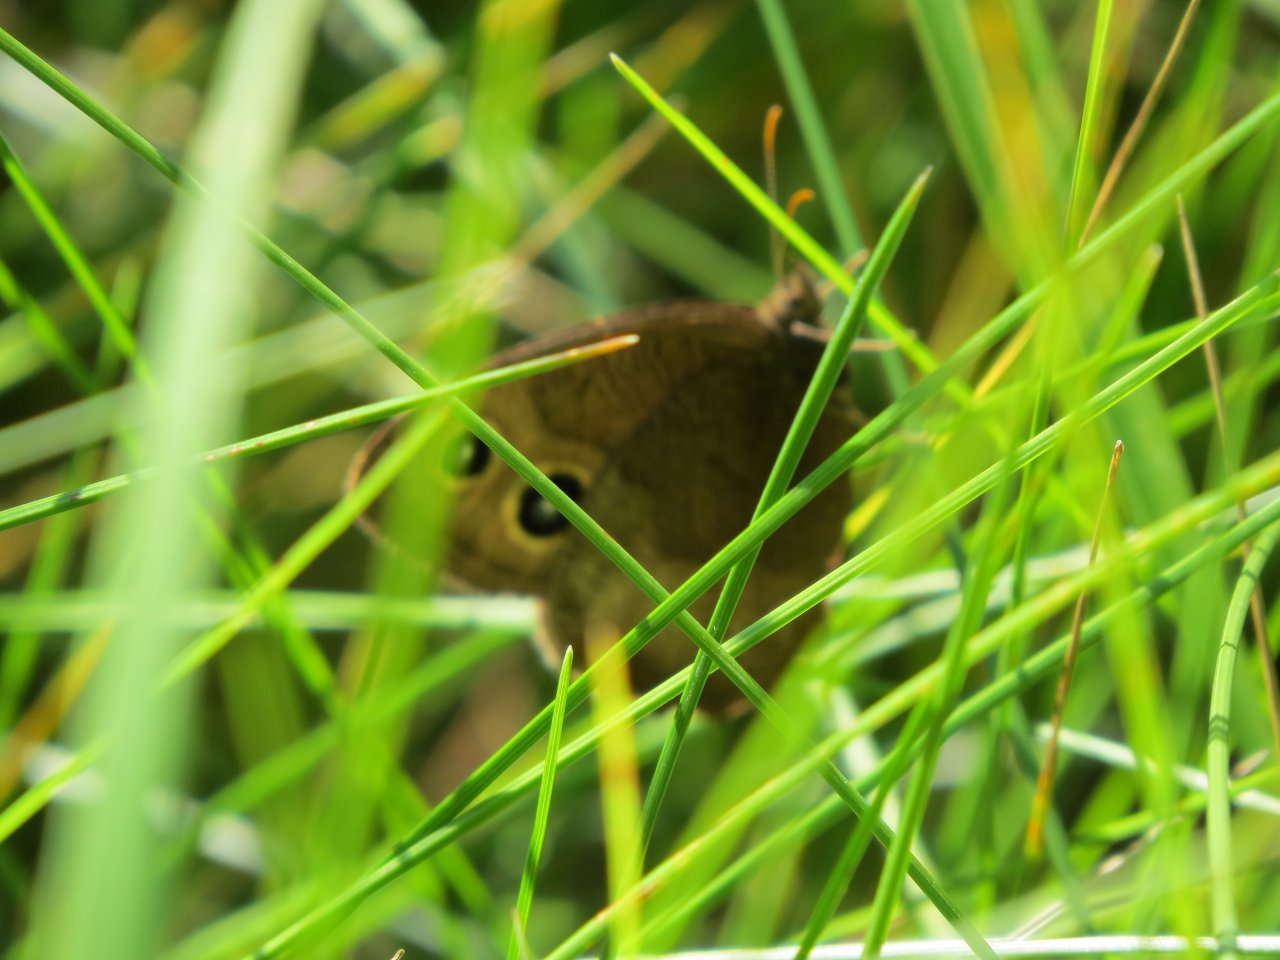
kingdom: Animalia
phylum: Arthropoda
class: Insecta
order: Lepidoptera
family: Nymphalidae
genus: Cercyonis
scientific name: Cercyonis pegala
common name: Common Wood-Nymph
